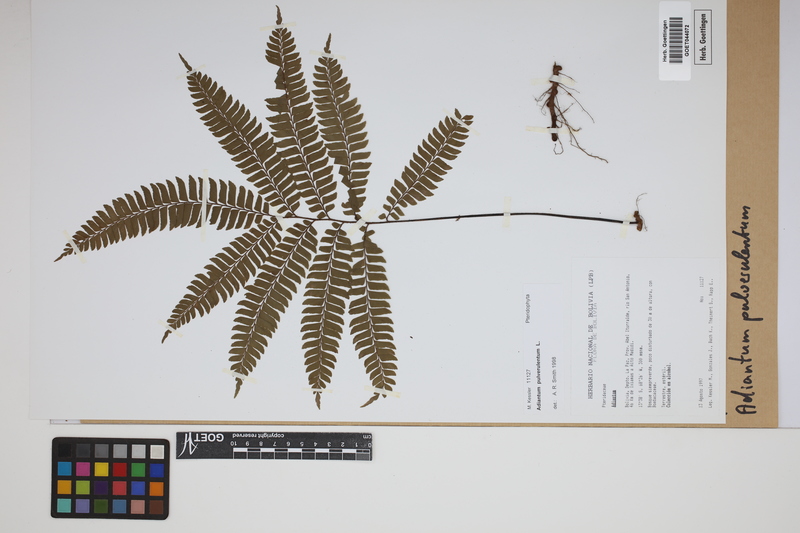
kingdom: Plantae
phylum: Tracheophyta
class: Polypodiopsida
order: Polypodiales
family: Pteridaceae
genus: Adiantum
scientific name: Adiantum pulverulentum
